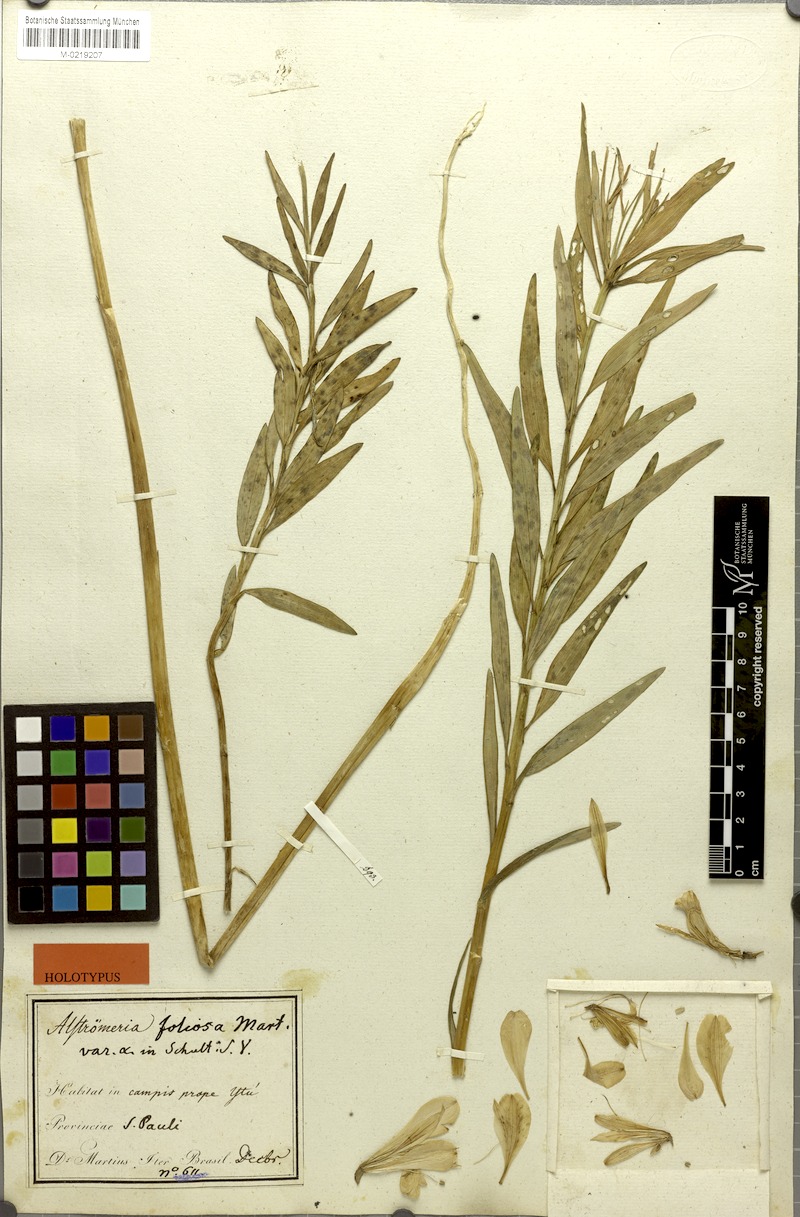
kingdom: Plantae
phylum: Tracheophyta
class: Liliopsida
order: Liliales
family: Alstroemeriaceae
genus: Alstroemeria
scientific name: Alstroemeria foliosa
